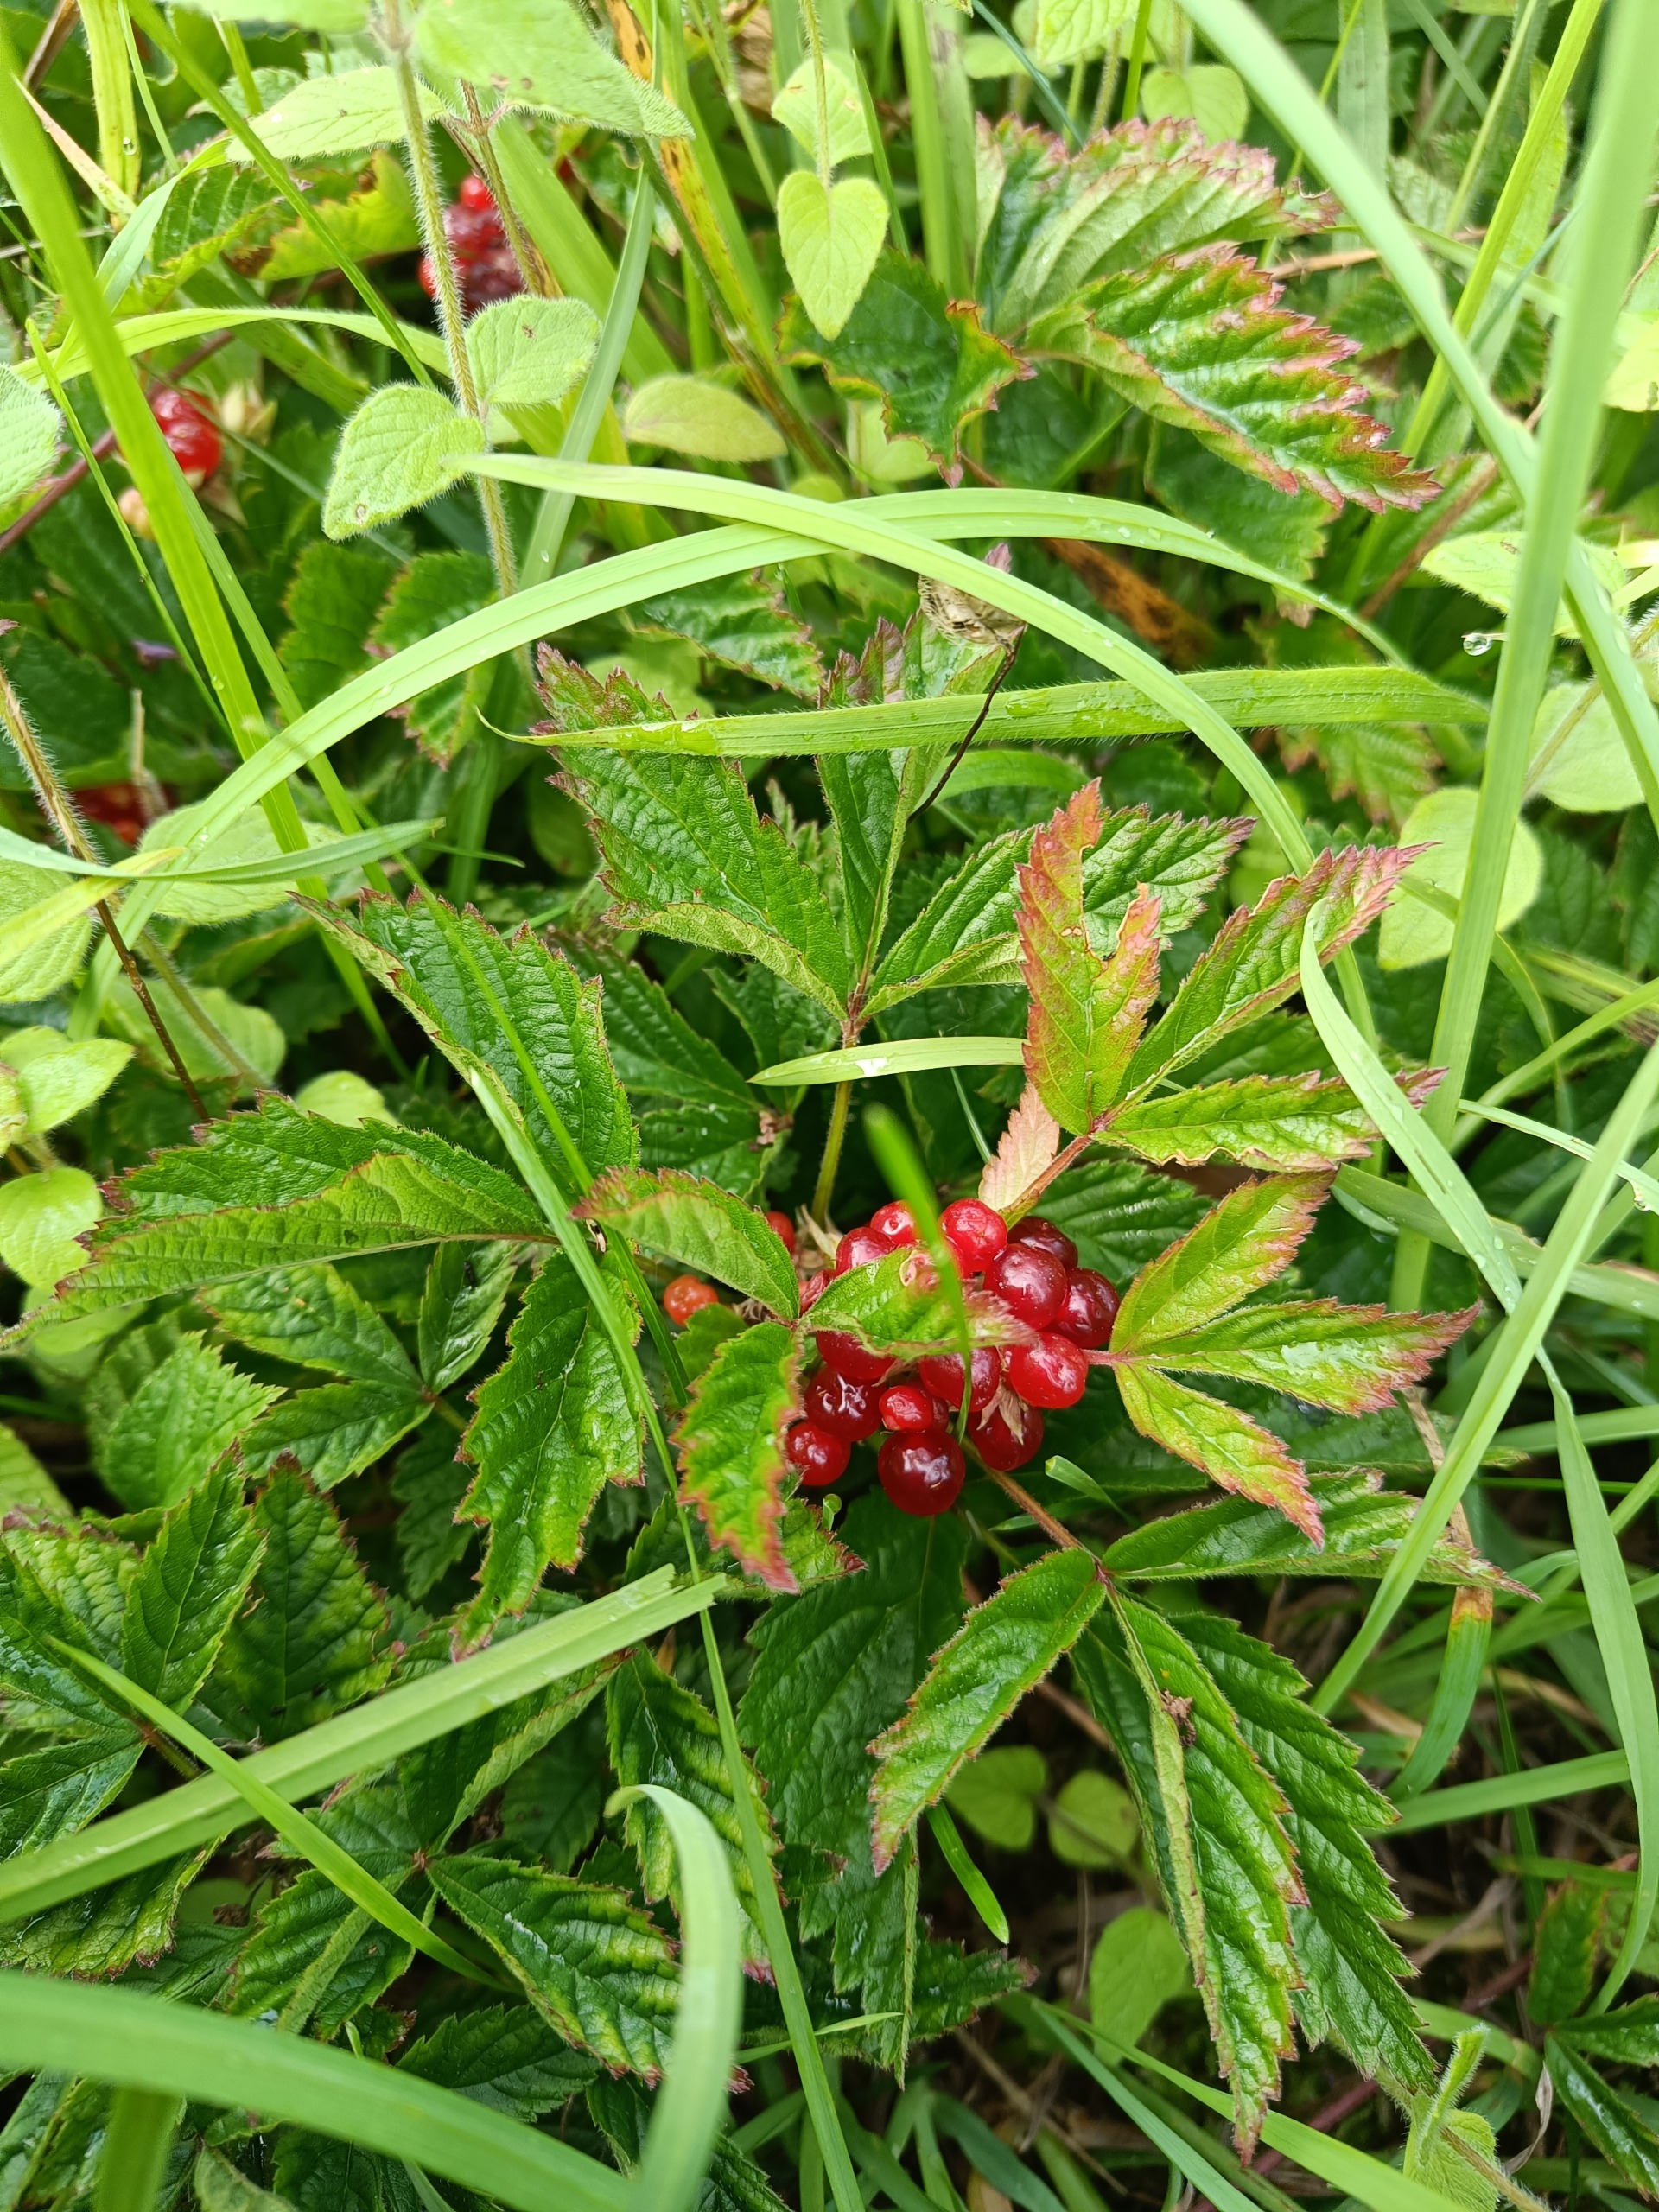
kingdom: Plantae
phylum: Tracheophyta
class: Magnoliopsida
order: Rosales
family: Rosaceae
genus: Rubus
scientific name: Rubus saxatilis
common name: Fruebær
